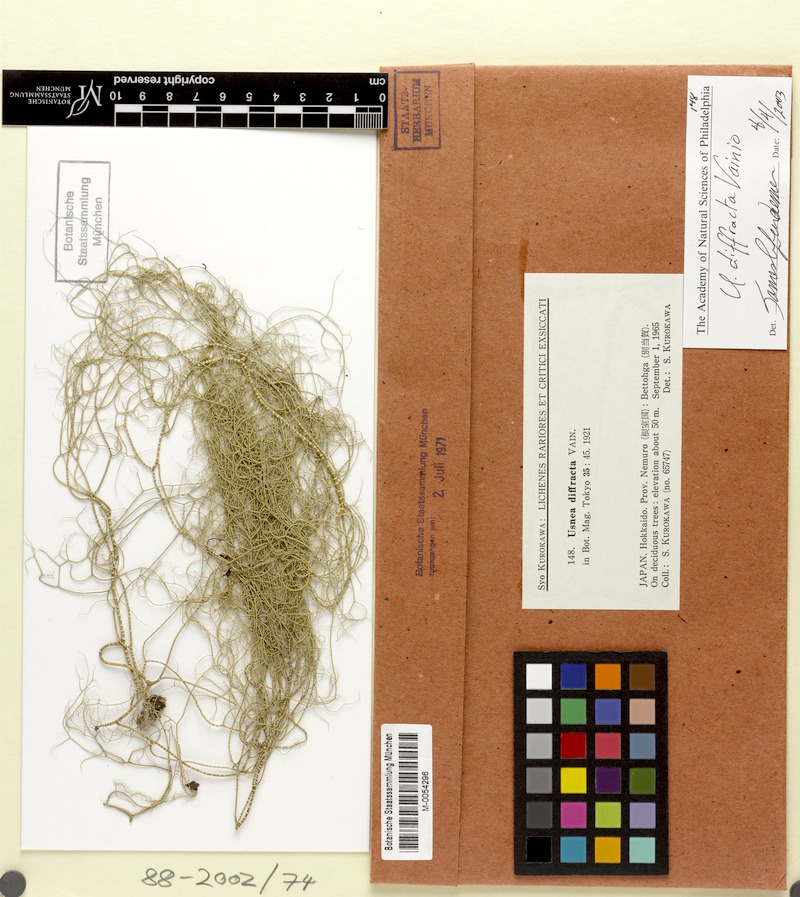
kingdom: Fungi
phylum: Ascomycota
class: Lecanoromycetes
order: Lecanorales
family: Parmeliaceae
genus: Dolichousnea
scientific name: Dolichousnea diffracta
